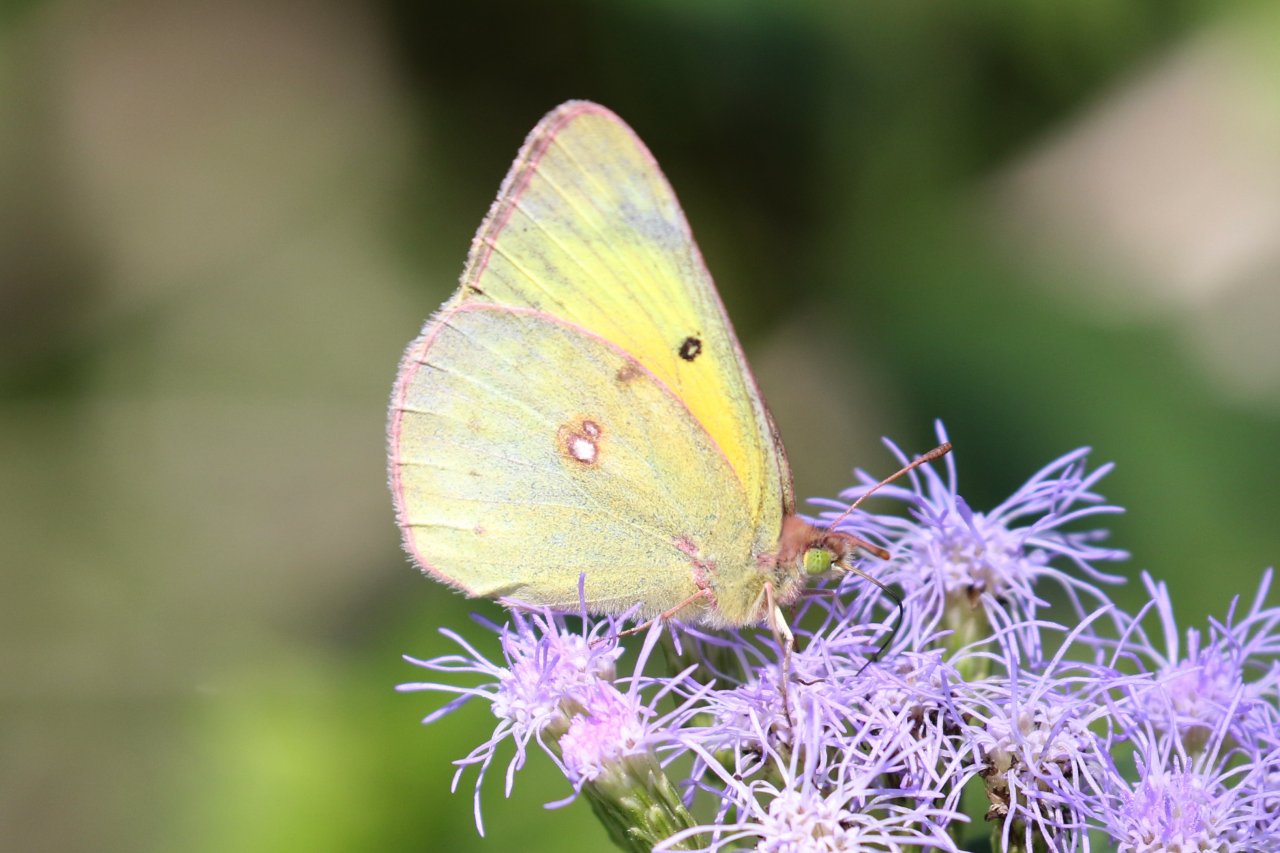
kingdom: Animalia
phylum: Arthropoda
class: Insecta
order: Lepidoptera
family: Pieridae
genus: Colias
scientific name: Colias eurytheme
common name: Orange Sulphur
